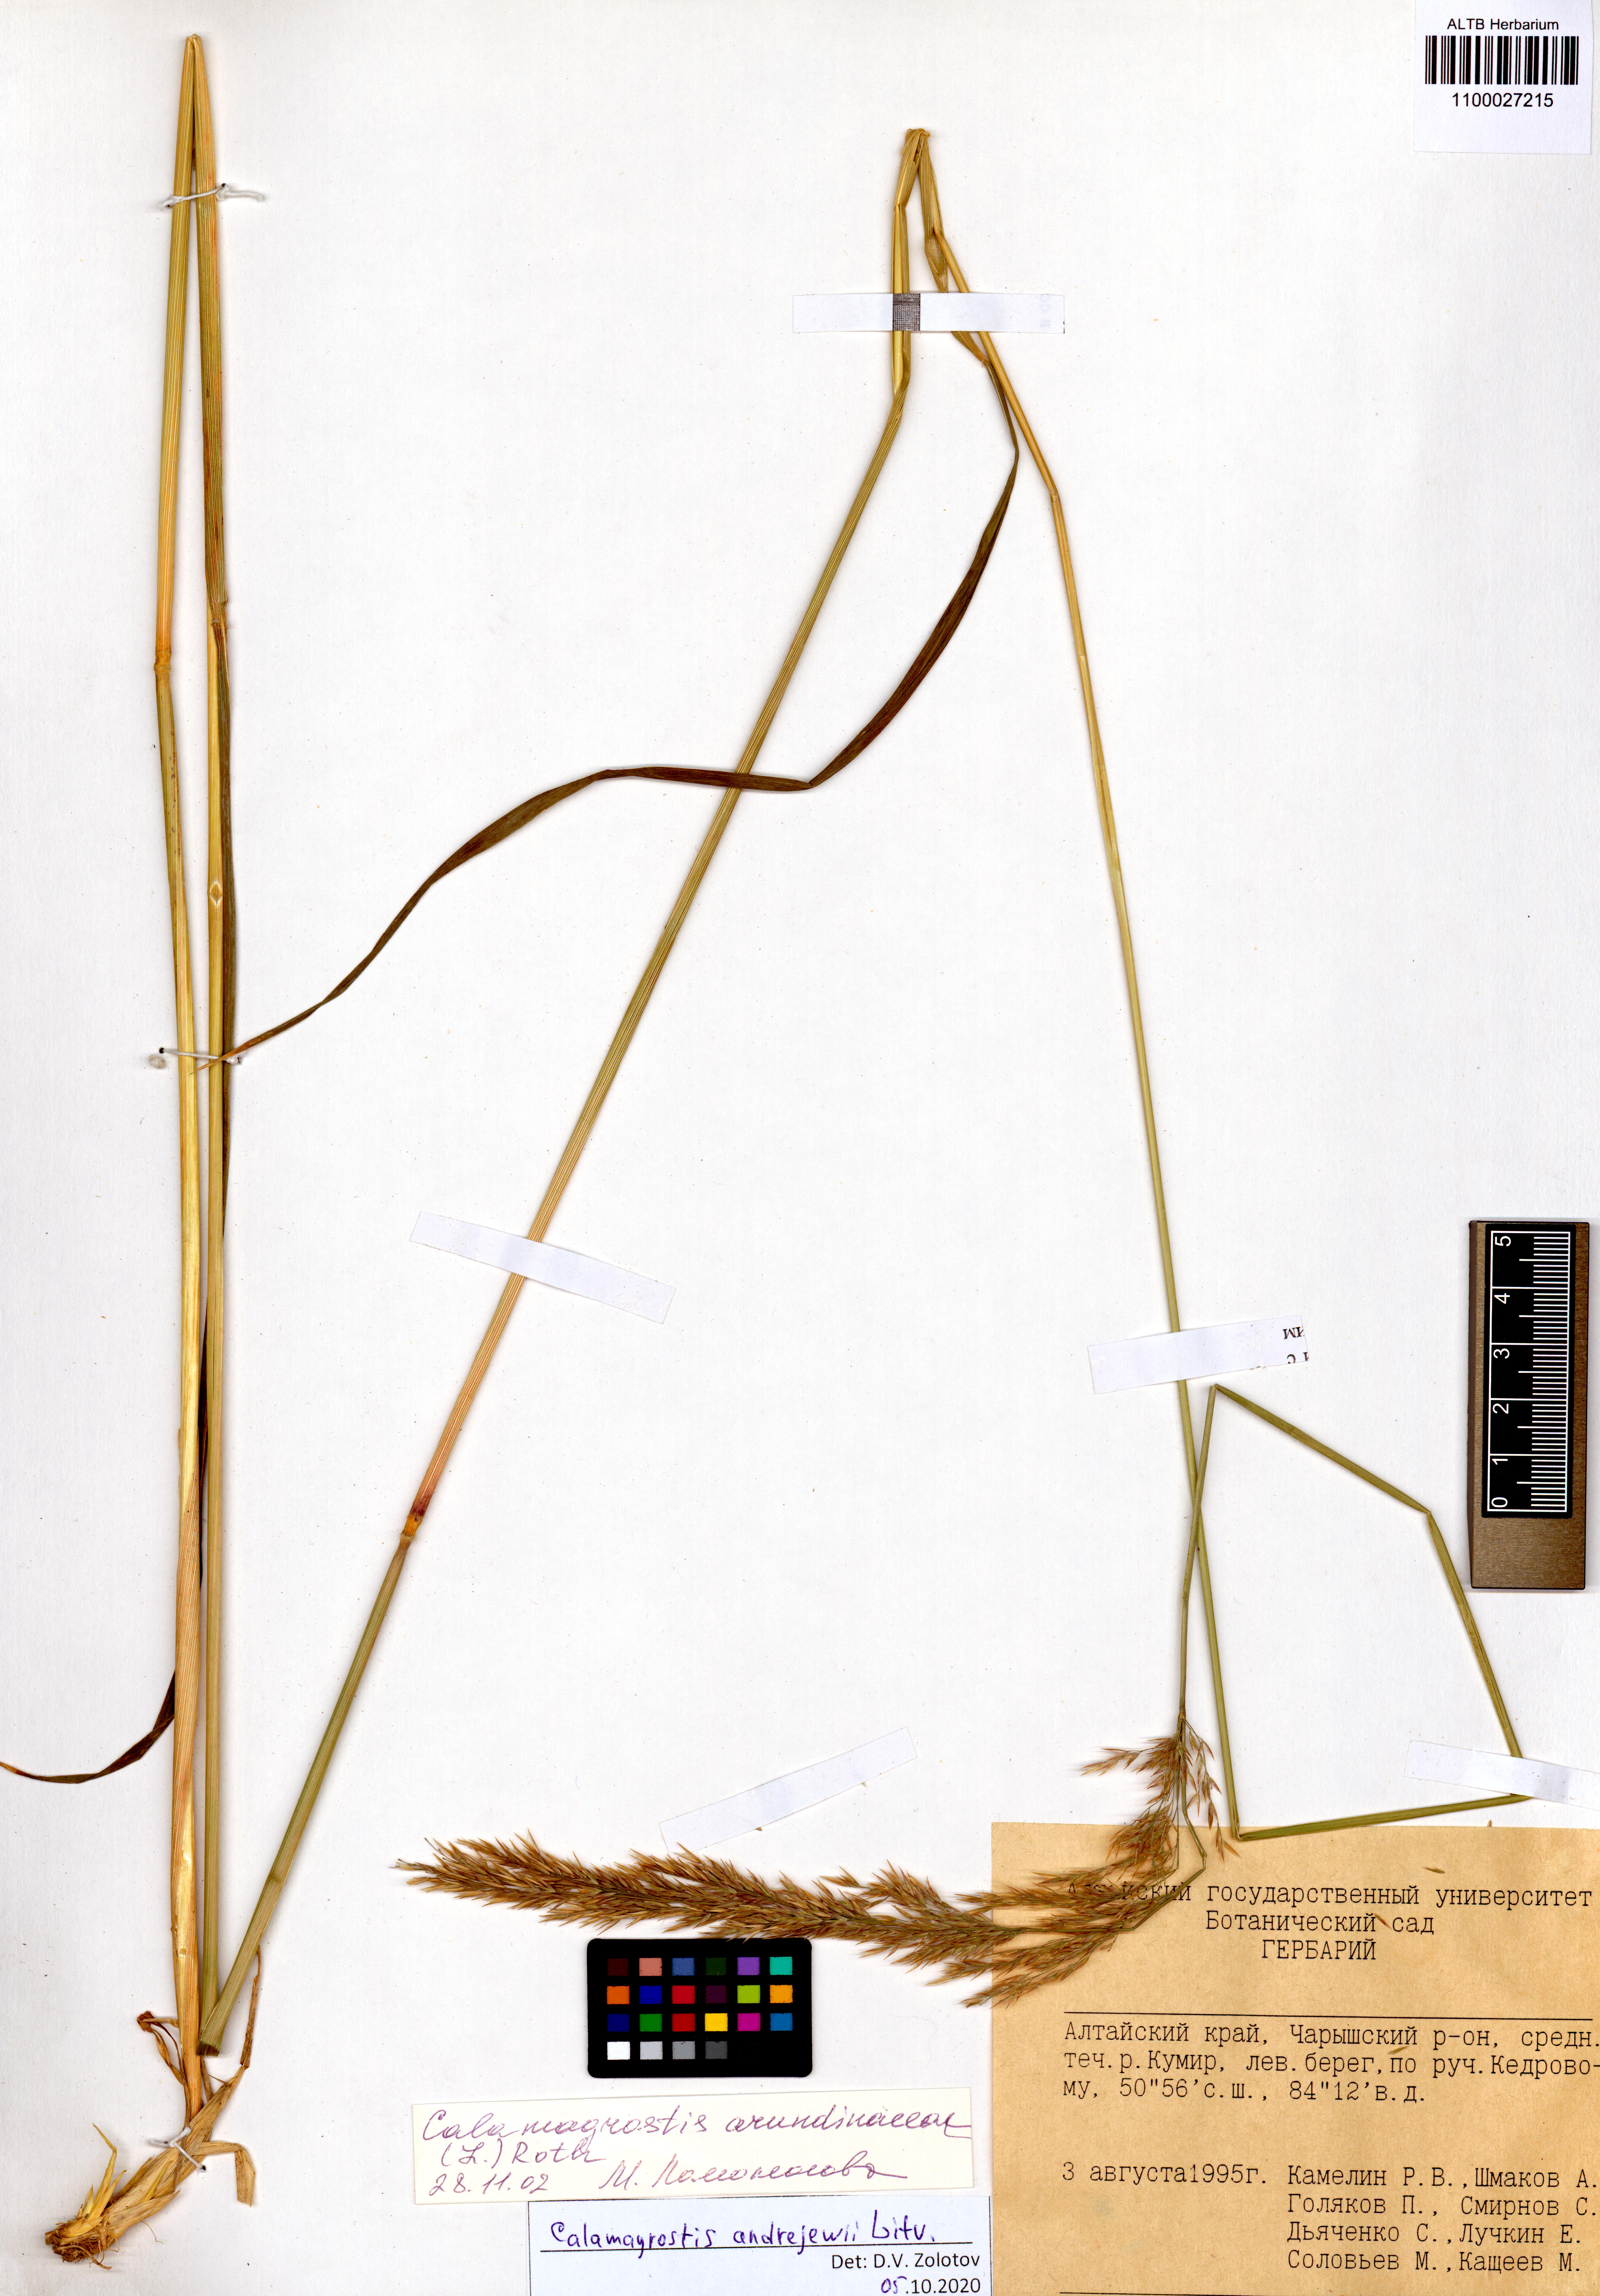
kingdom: Plantae
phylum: Tracheophyta
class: Liliopsida
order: Poales
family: Poaceae
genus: Calamagrostis
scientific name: Calamagrostis andrejewii
